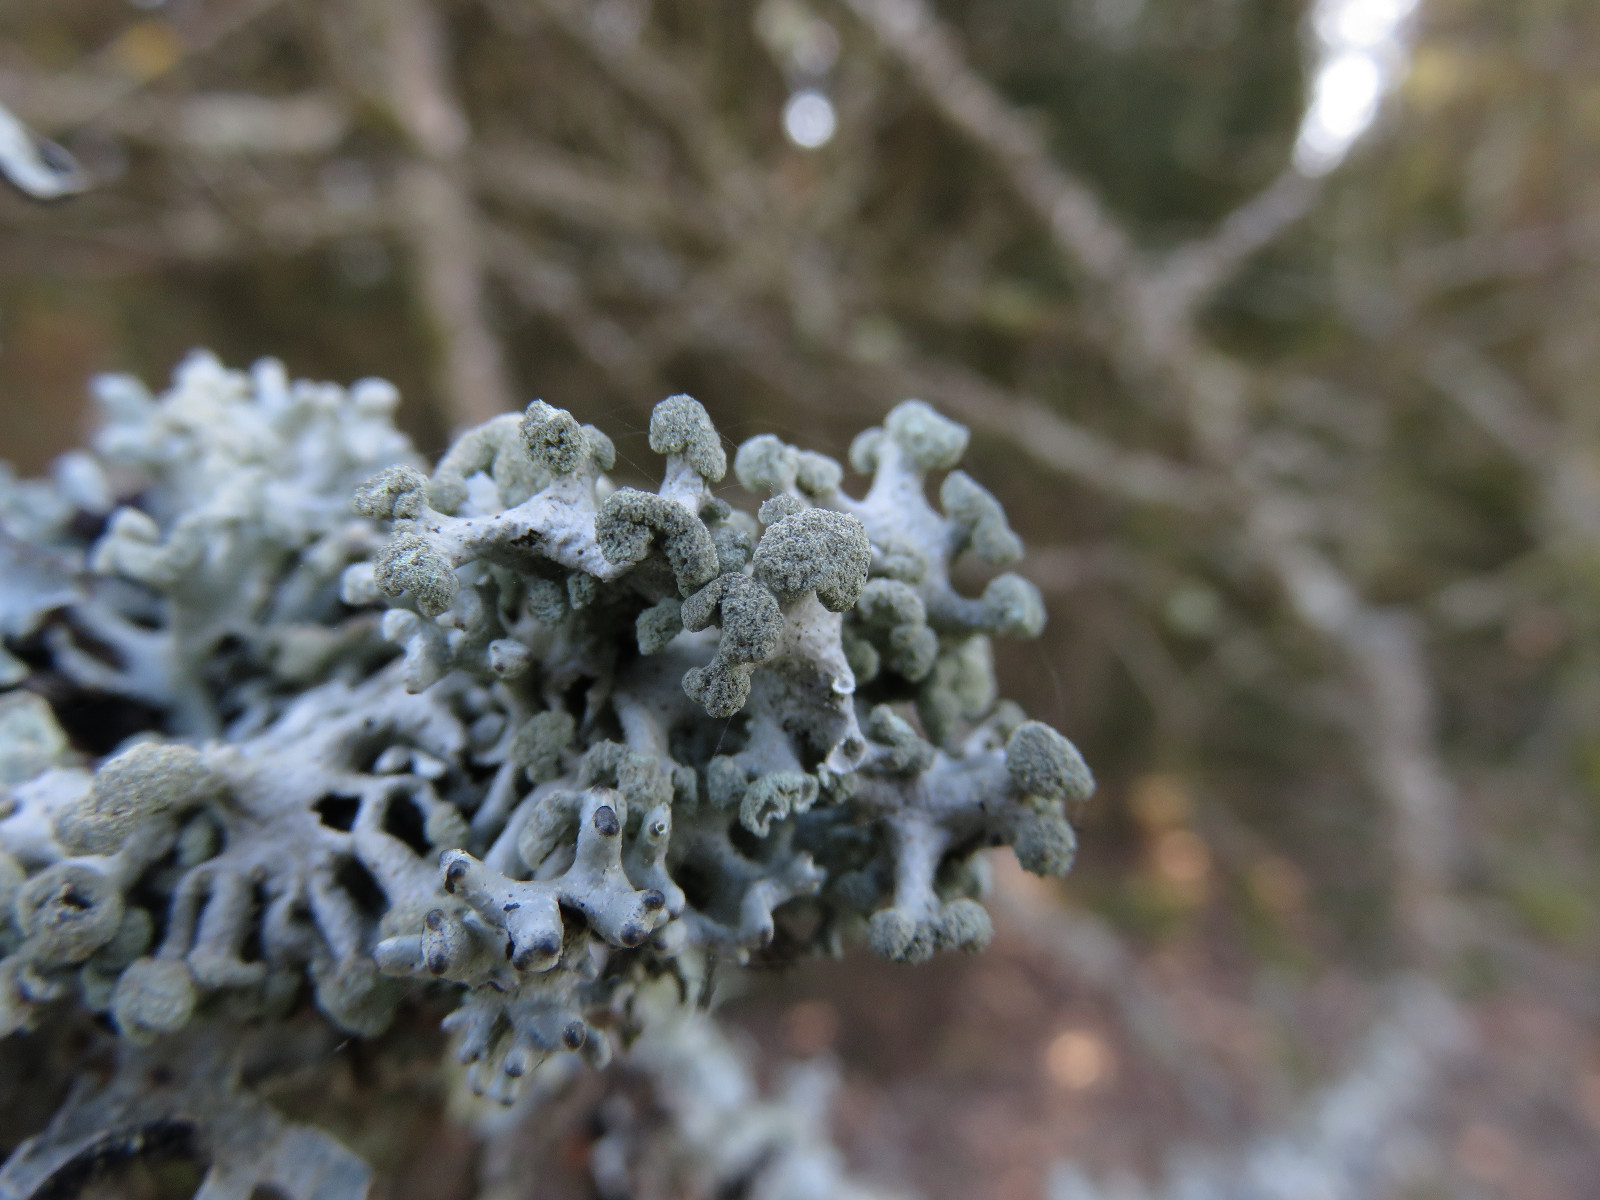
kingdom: Fungi
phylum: Ascomycota
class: Lecanoromycetes
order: Lecanorales
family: Parmeliaceae
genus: Hypogymnia
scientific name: Hypogymnia tubulosa
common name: finger-kvistlav
